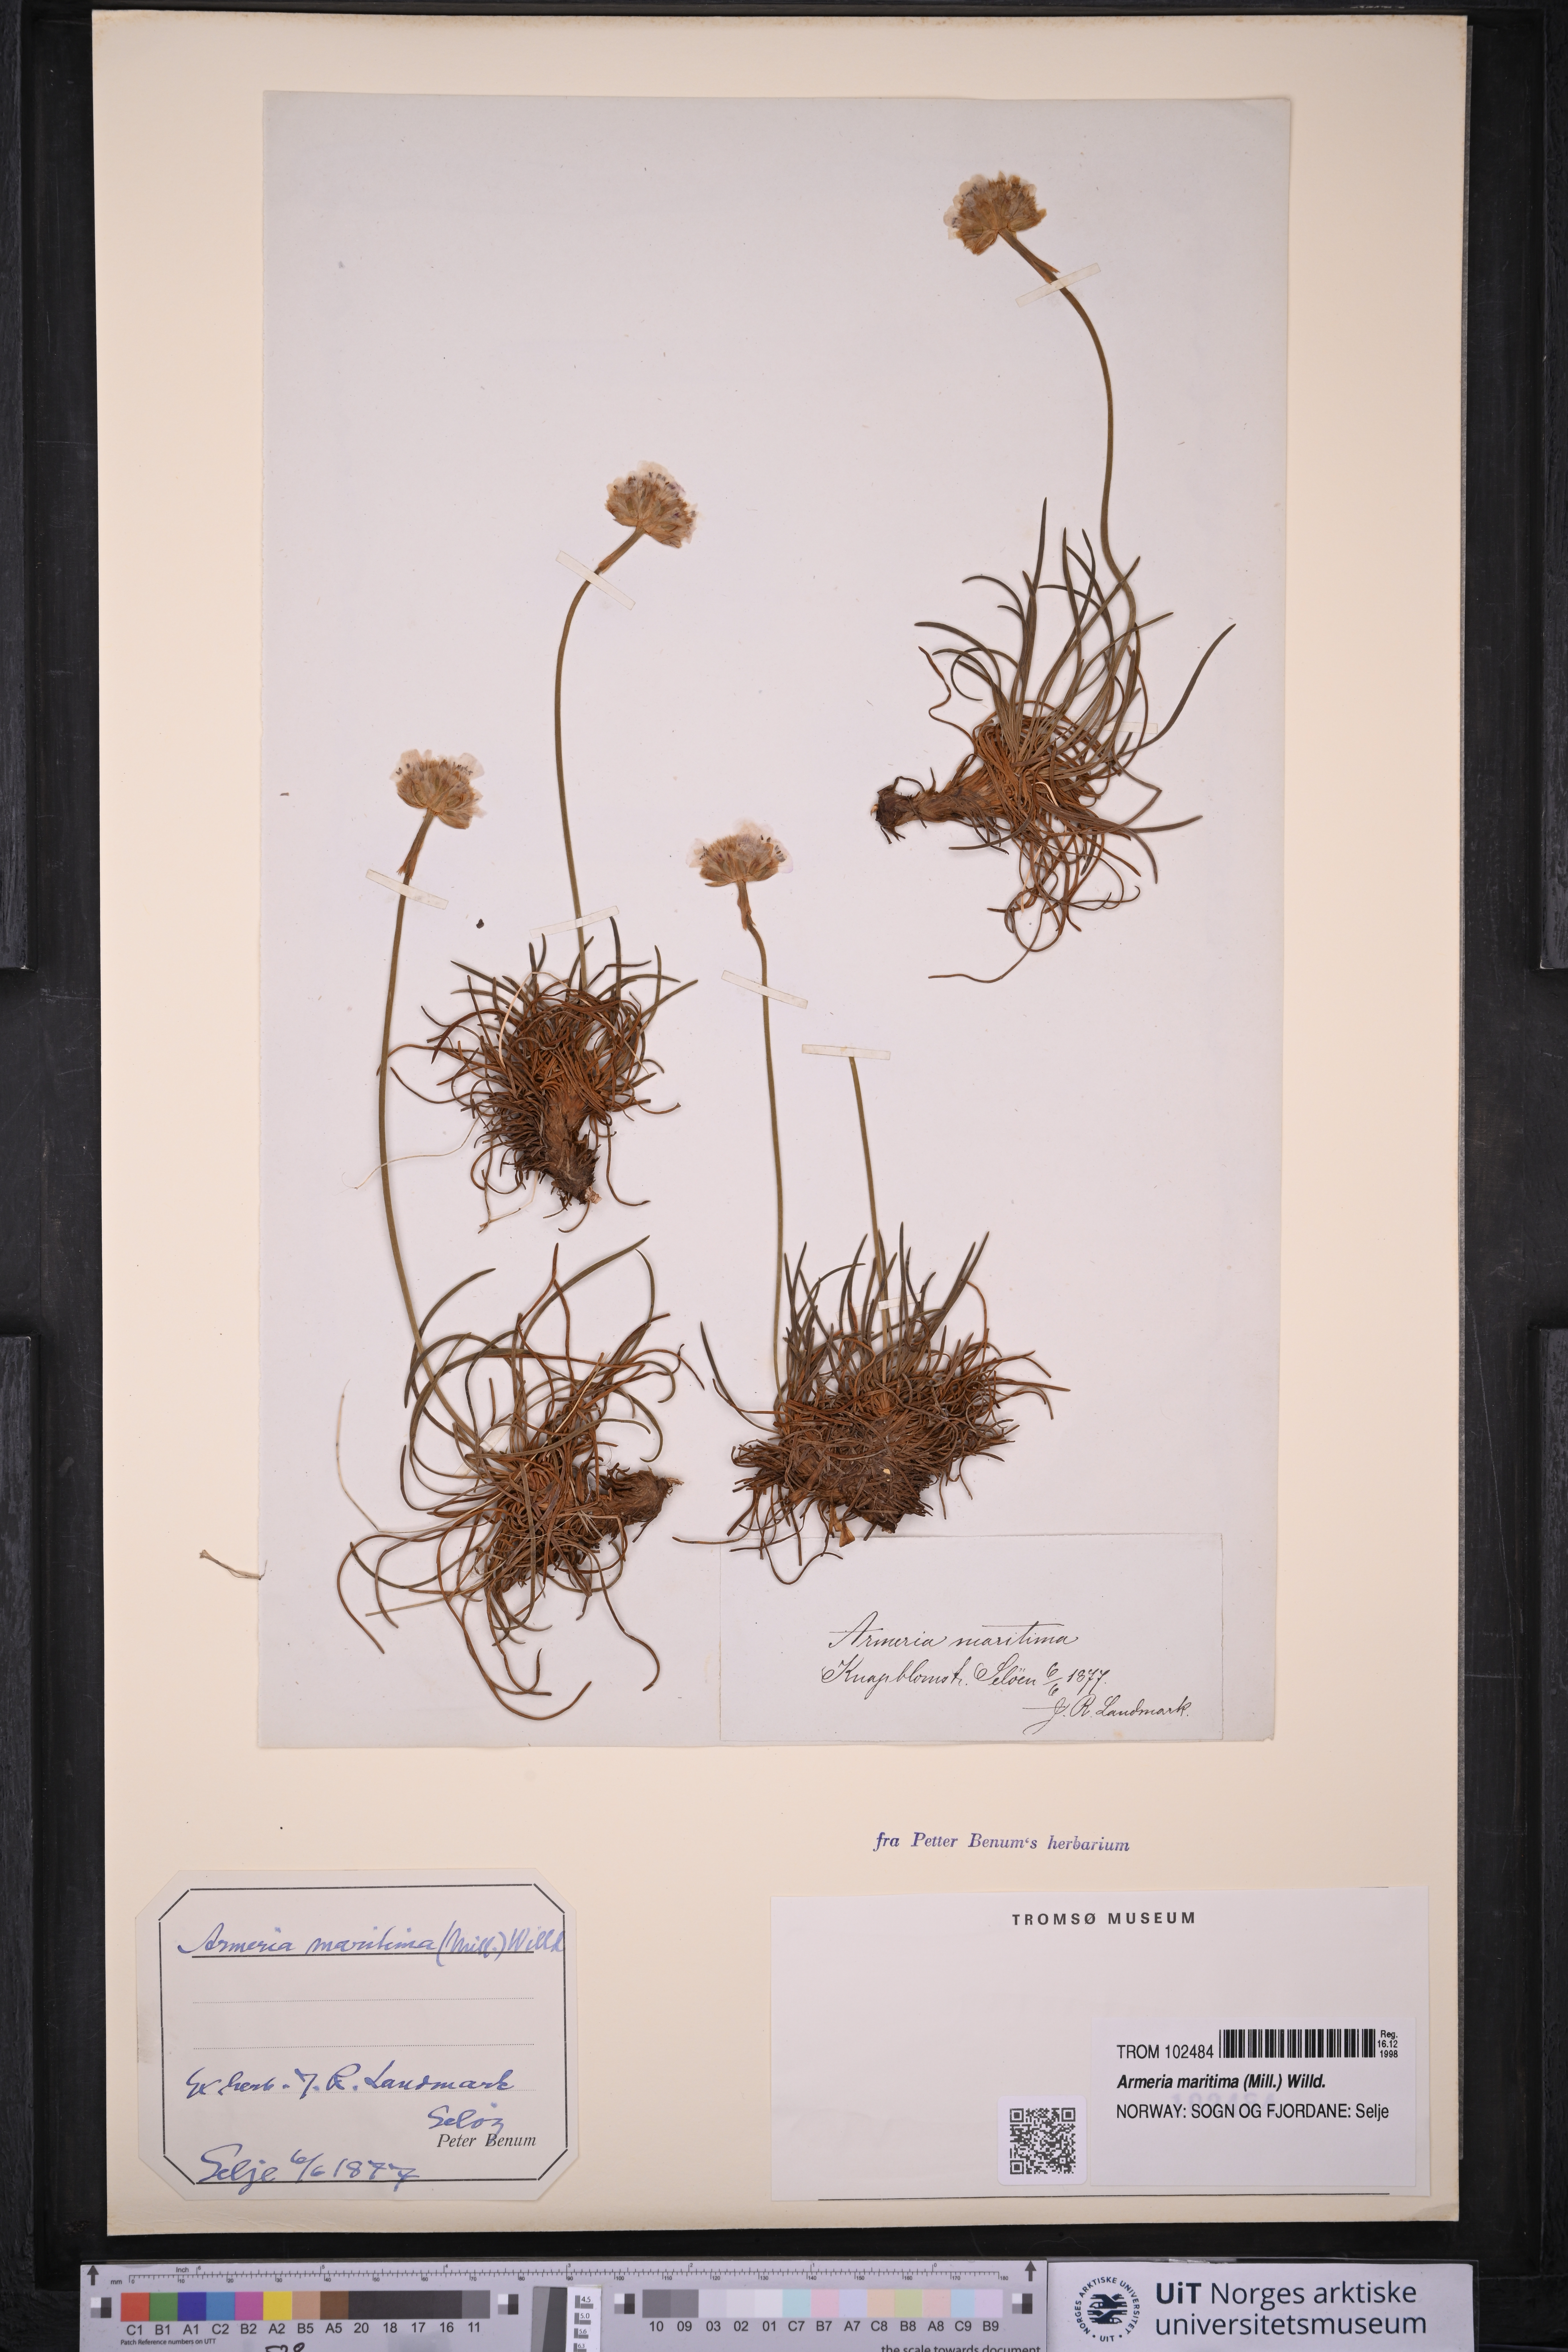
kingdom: Plantae
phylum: Tracheophyta
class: Magnoliopsida
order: Caryophyllales
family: Plumbaginaceae
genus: Armeria
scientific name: Armeria maritima
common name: Thrift
